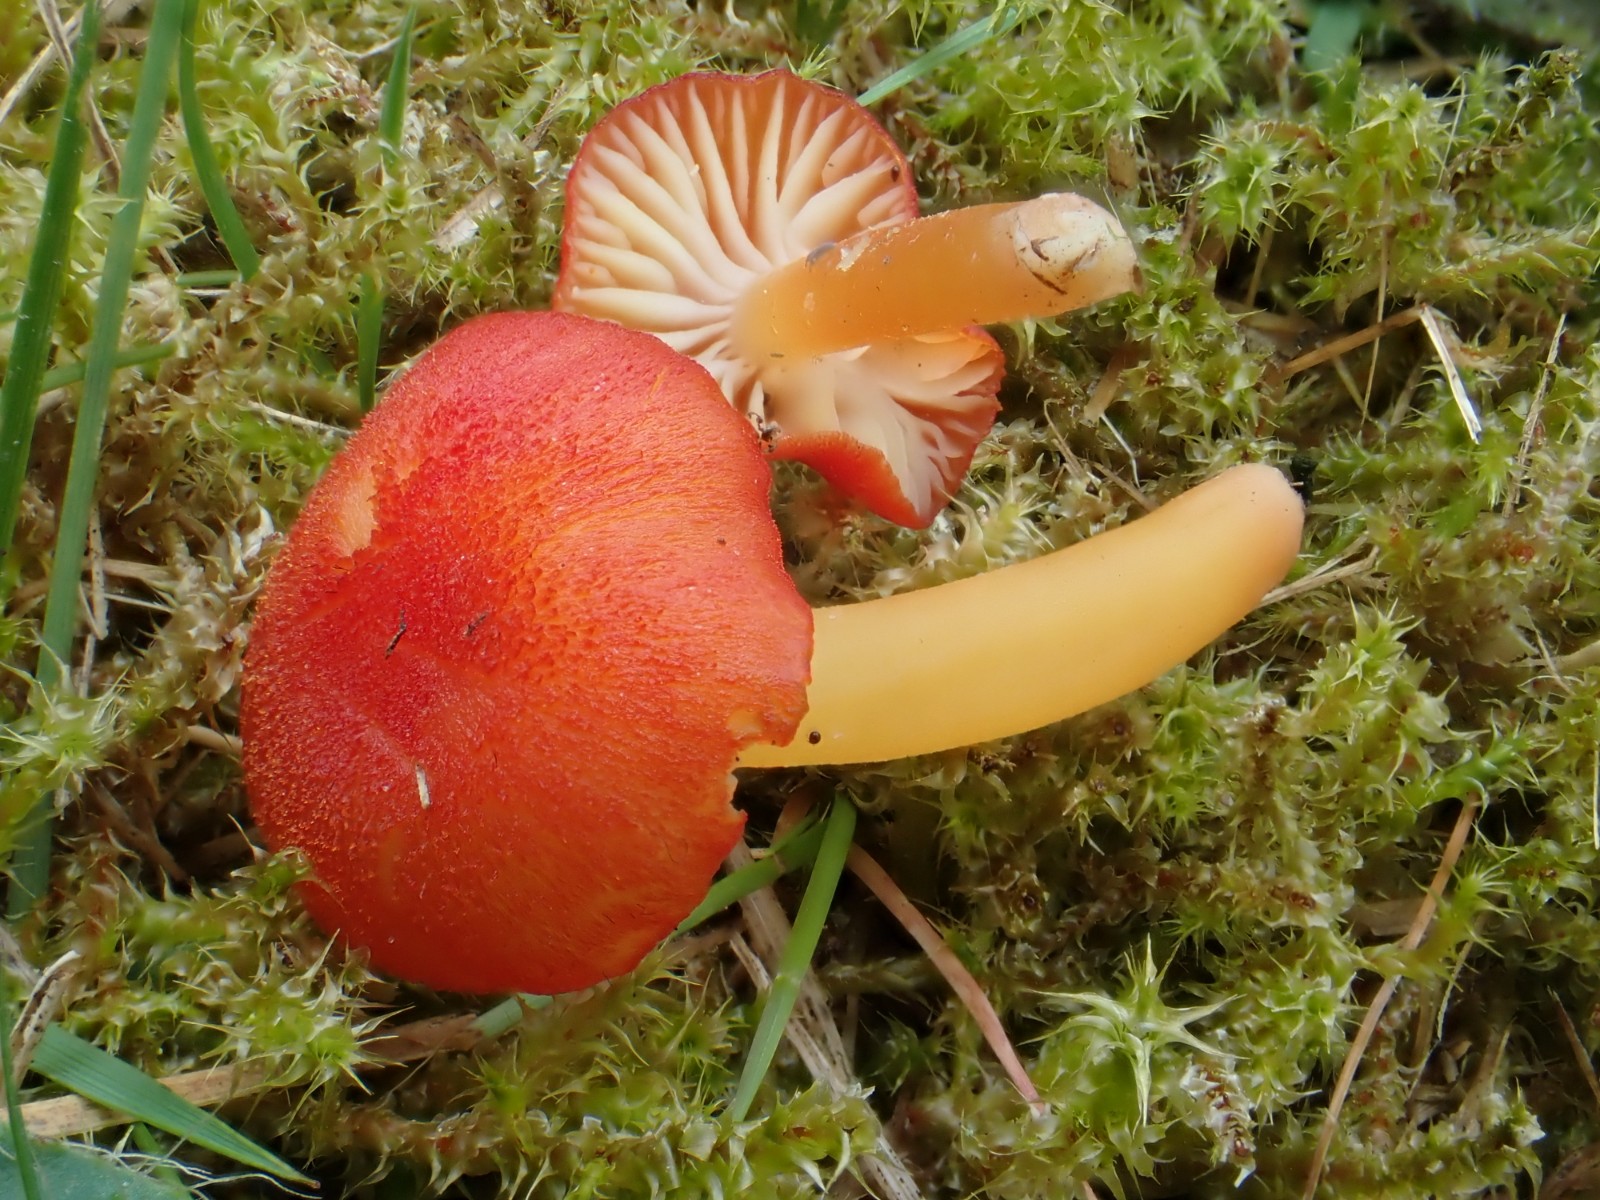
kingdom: Fungi
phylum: Basidiomycota
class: Agaricomycetes
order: Agaricales
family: Hygrophoraceae
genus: Hygrocybe
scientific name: Hygrocybe helobia
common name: hvidløgs-vokshat
